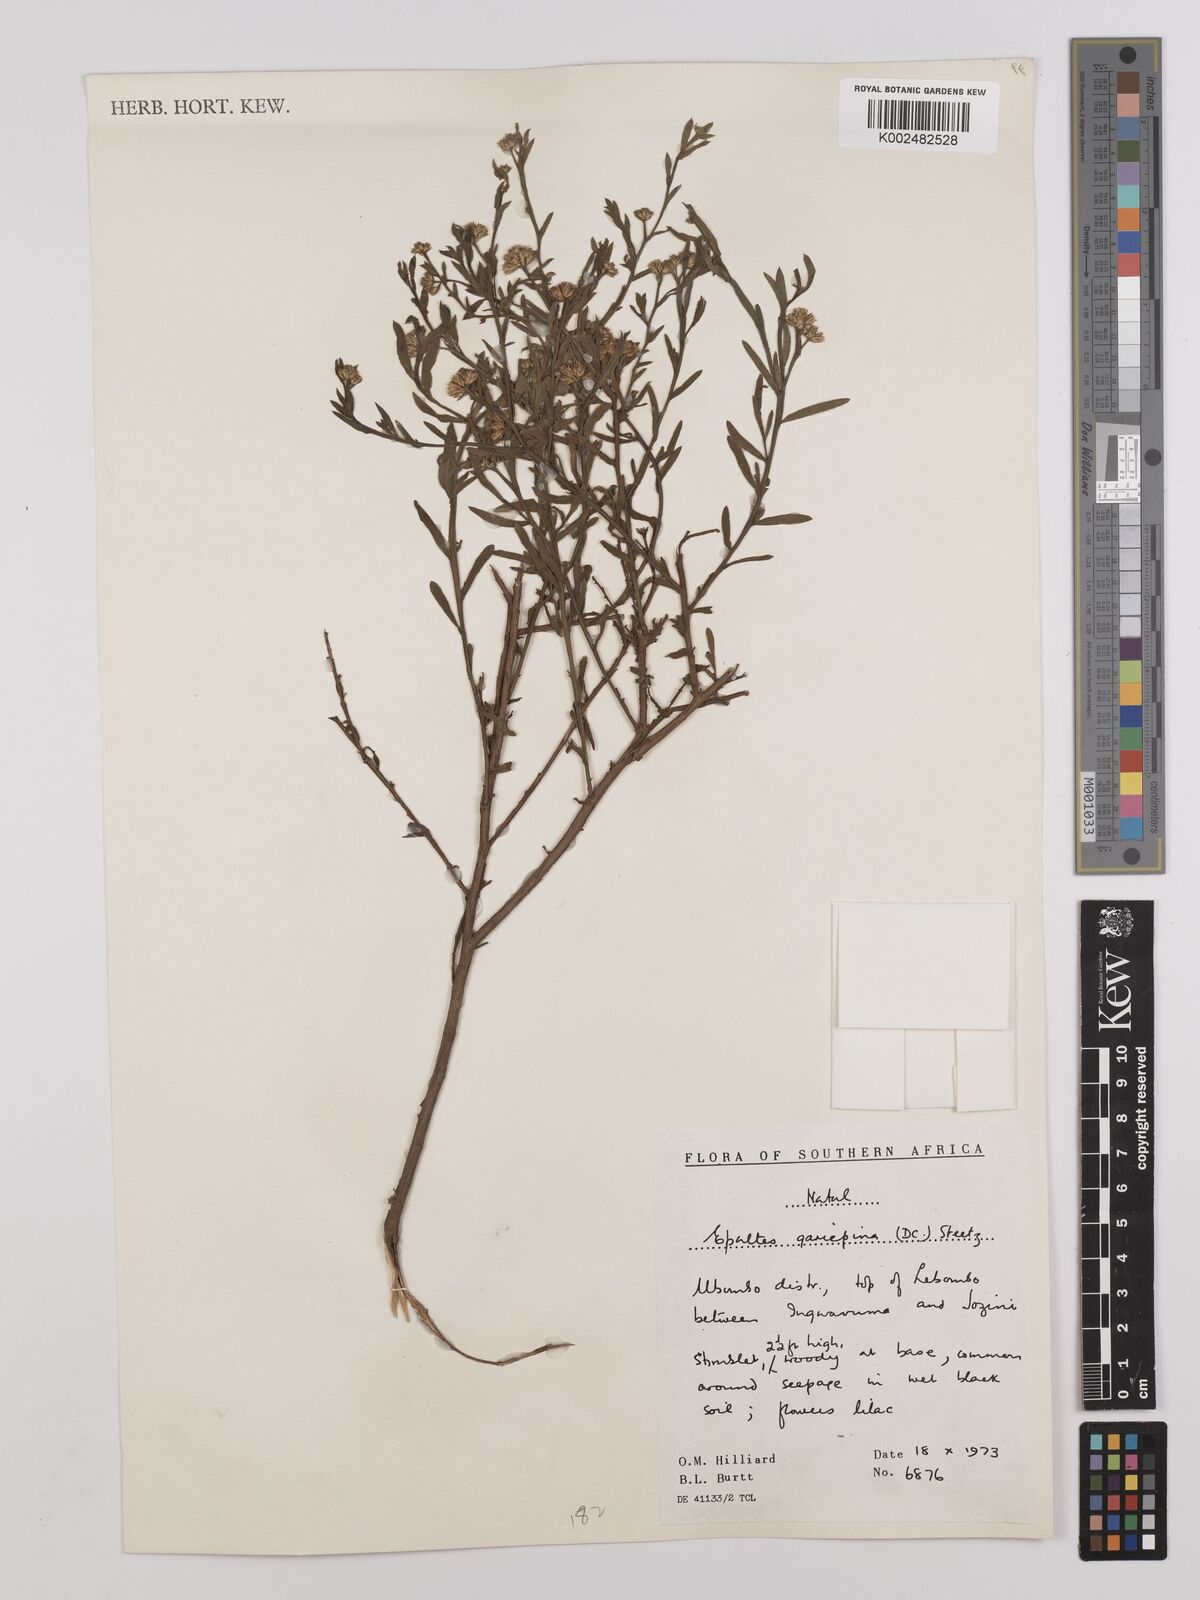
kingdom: Plantae
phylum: Tracheophyta
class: Magnoliopsida
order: Asterales
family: Asteraceae
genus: Litogyne
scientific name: Litogyne gariepina
